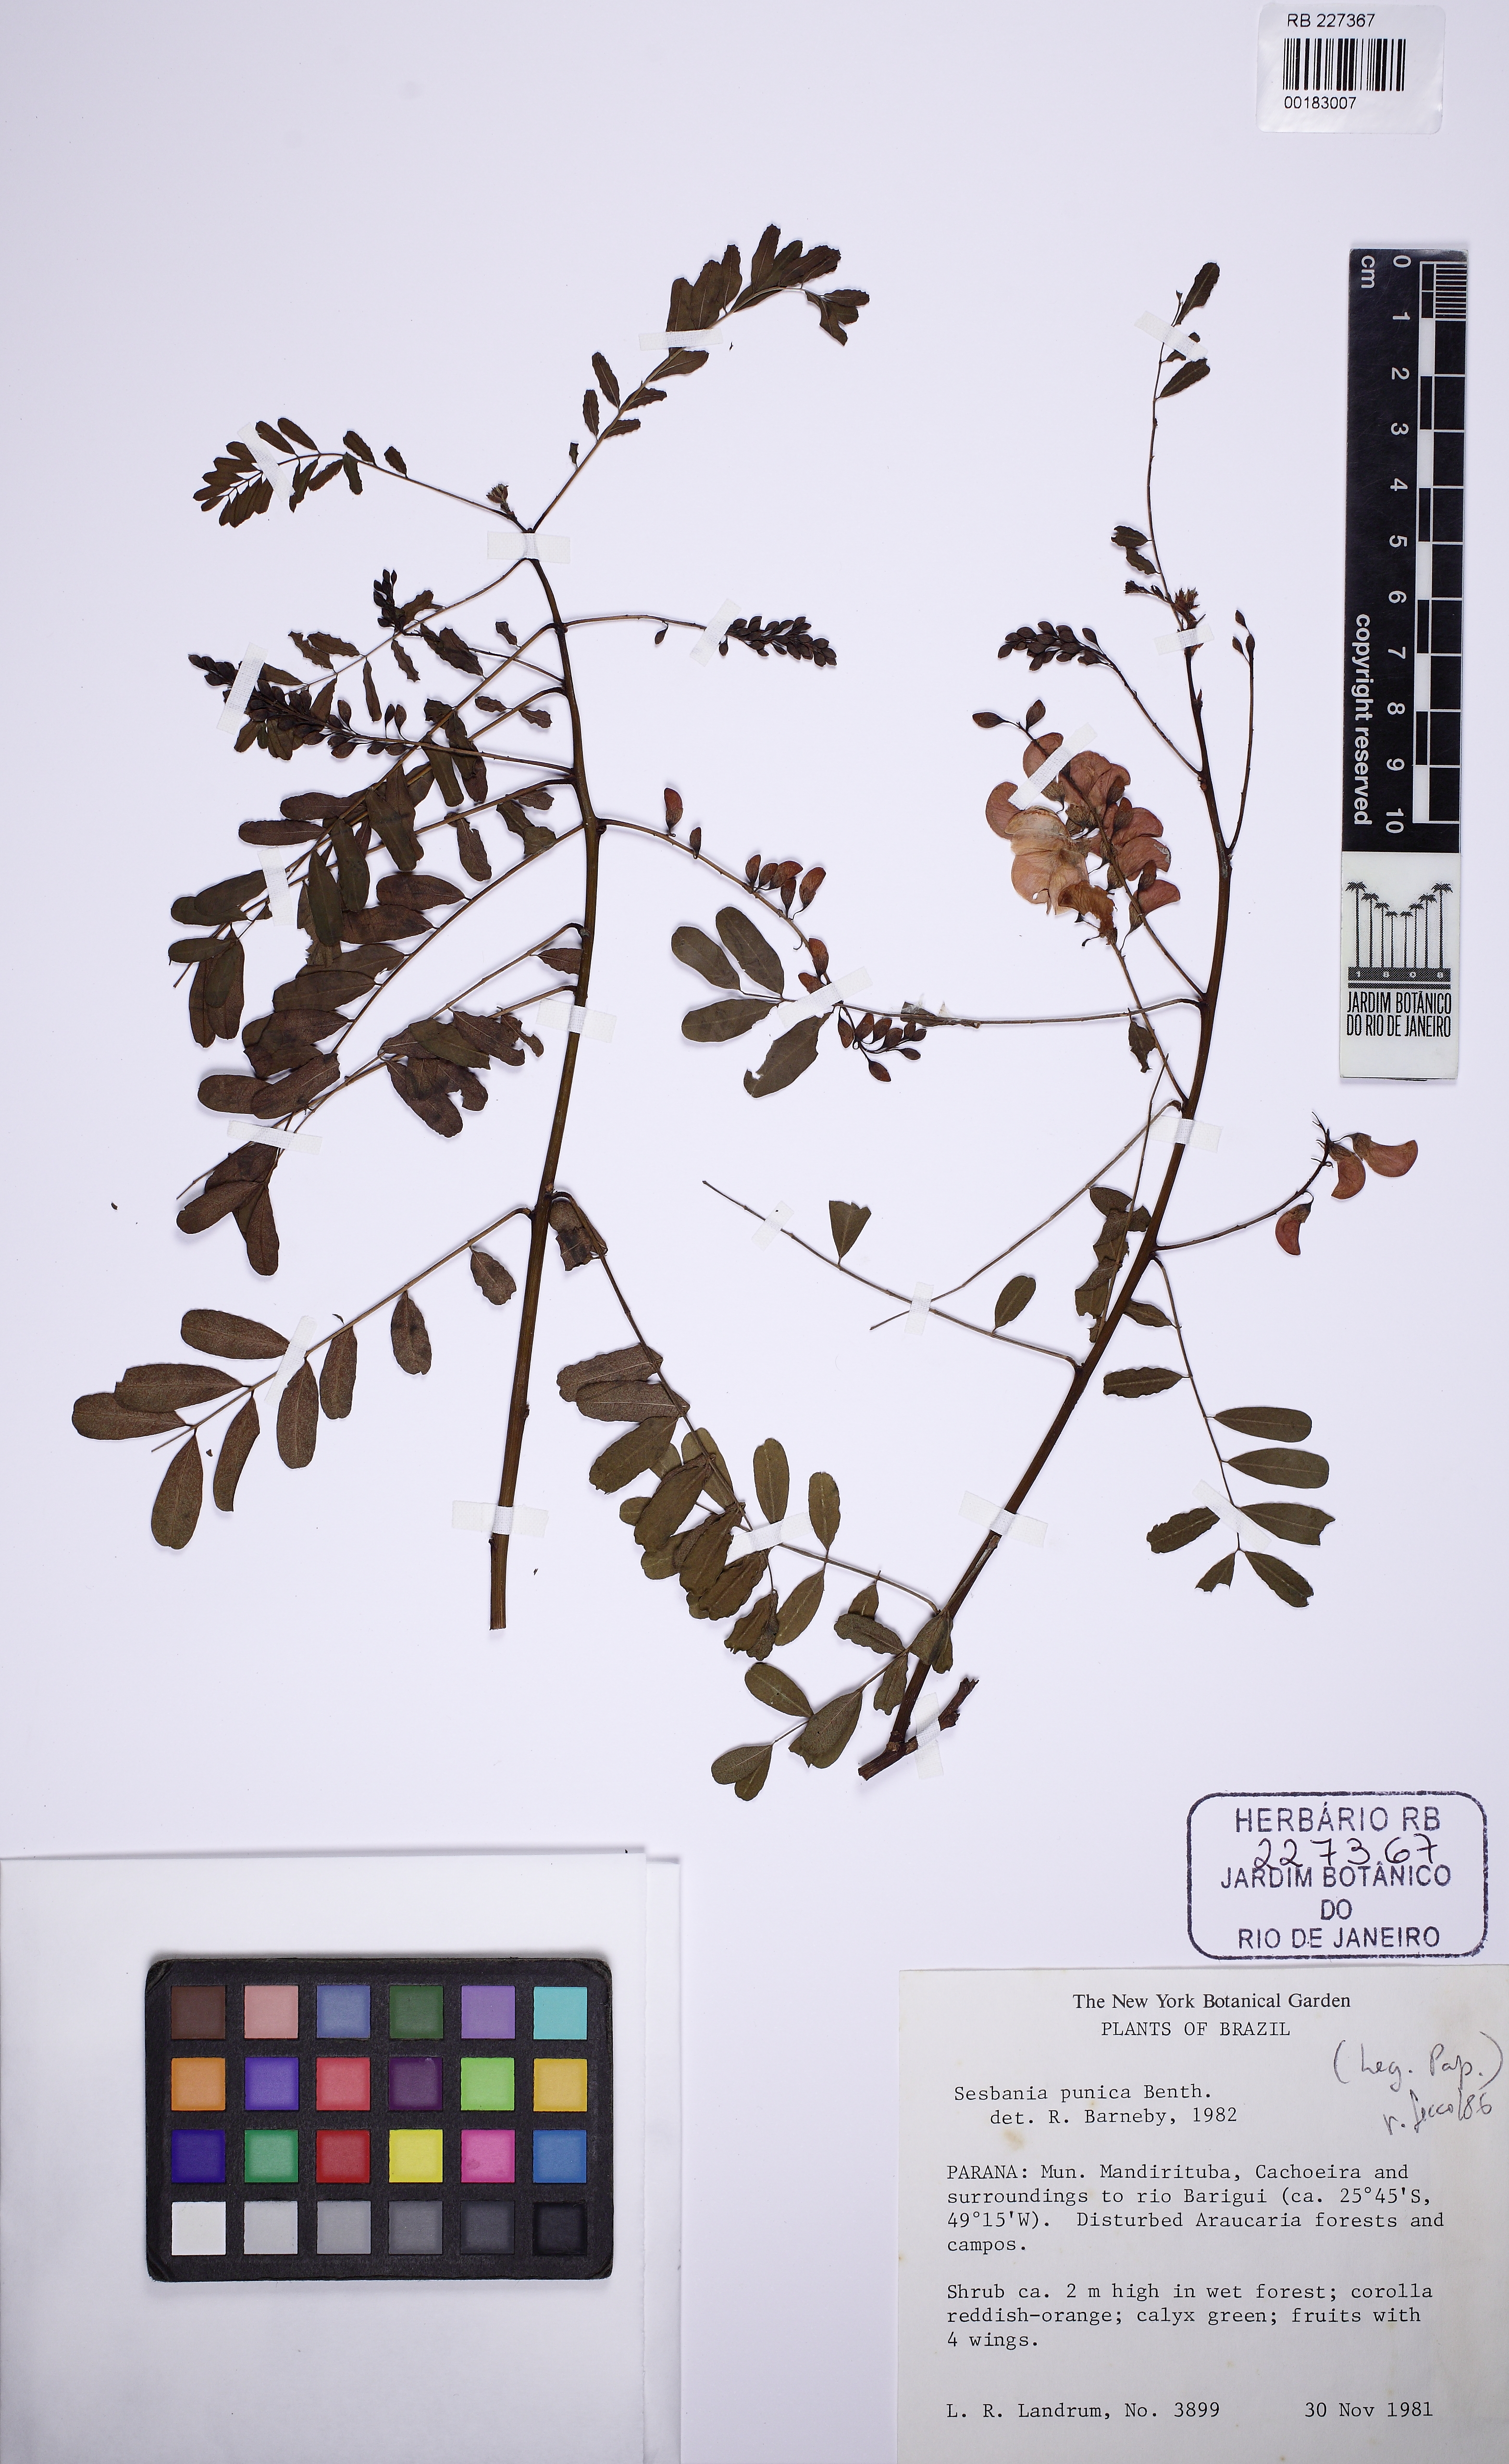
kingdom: Plantae
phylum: Tracheophyta
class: Magnoliopsida
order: Fabales
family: Fabaceae
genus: Sesbania
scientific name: Sesbania punicea
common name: Rattlebox
